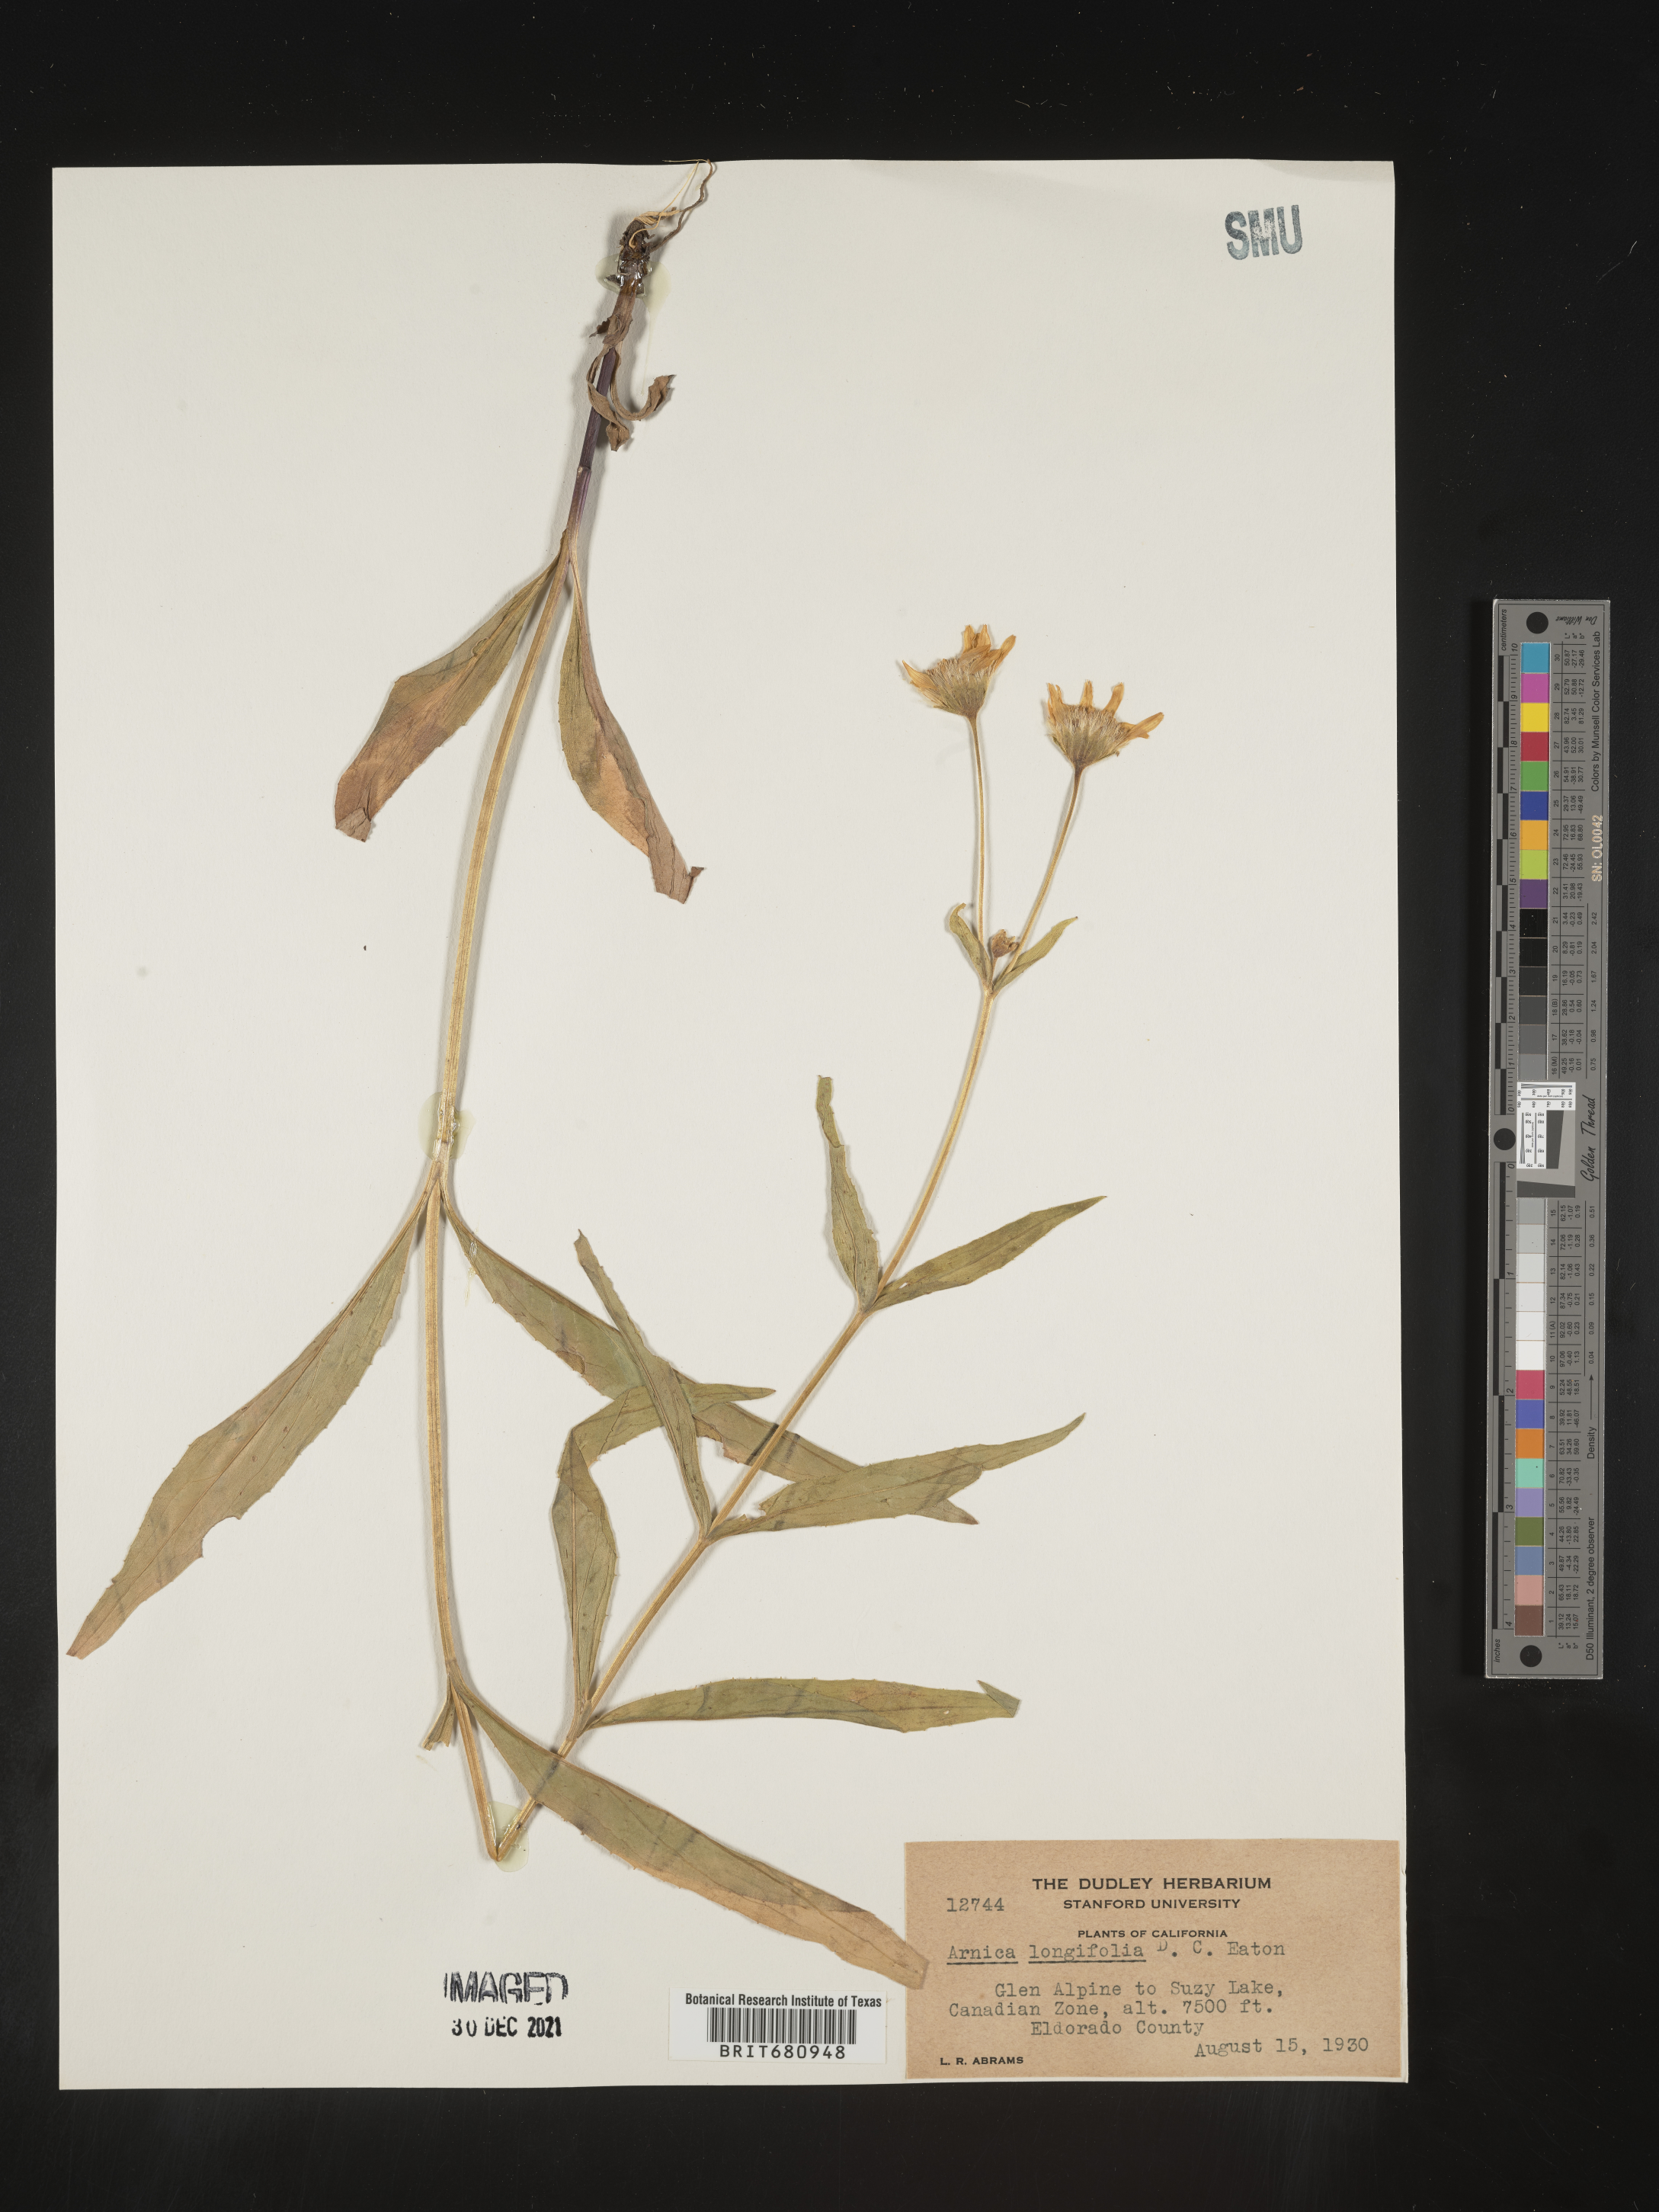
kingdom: Plantae
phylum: Tracheophyta
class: Magnoliopsida
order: Asterales
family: Asteraceae
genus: Arnica
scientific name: Arnica longifolia
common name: Spear-leaf arnica
